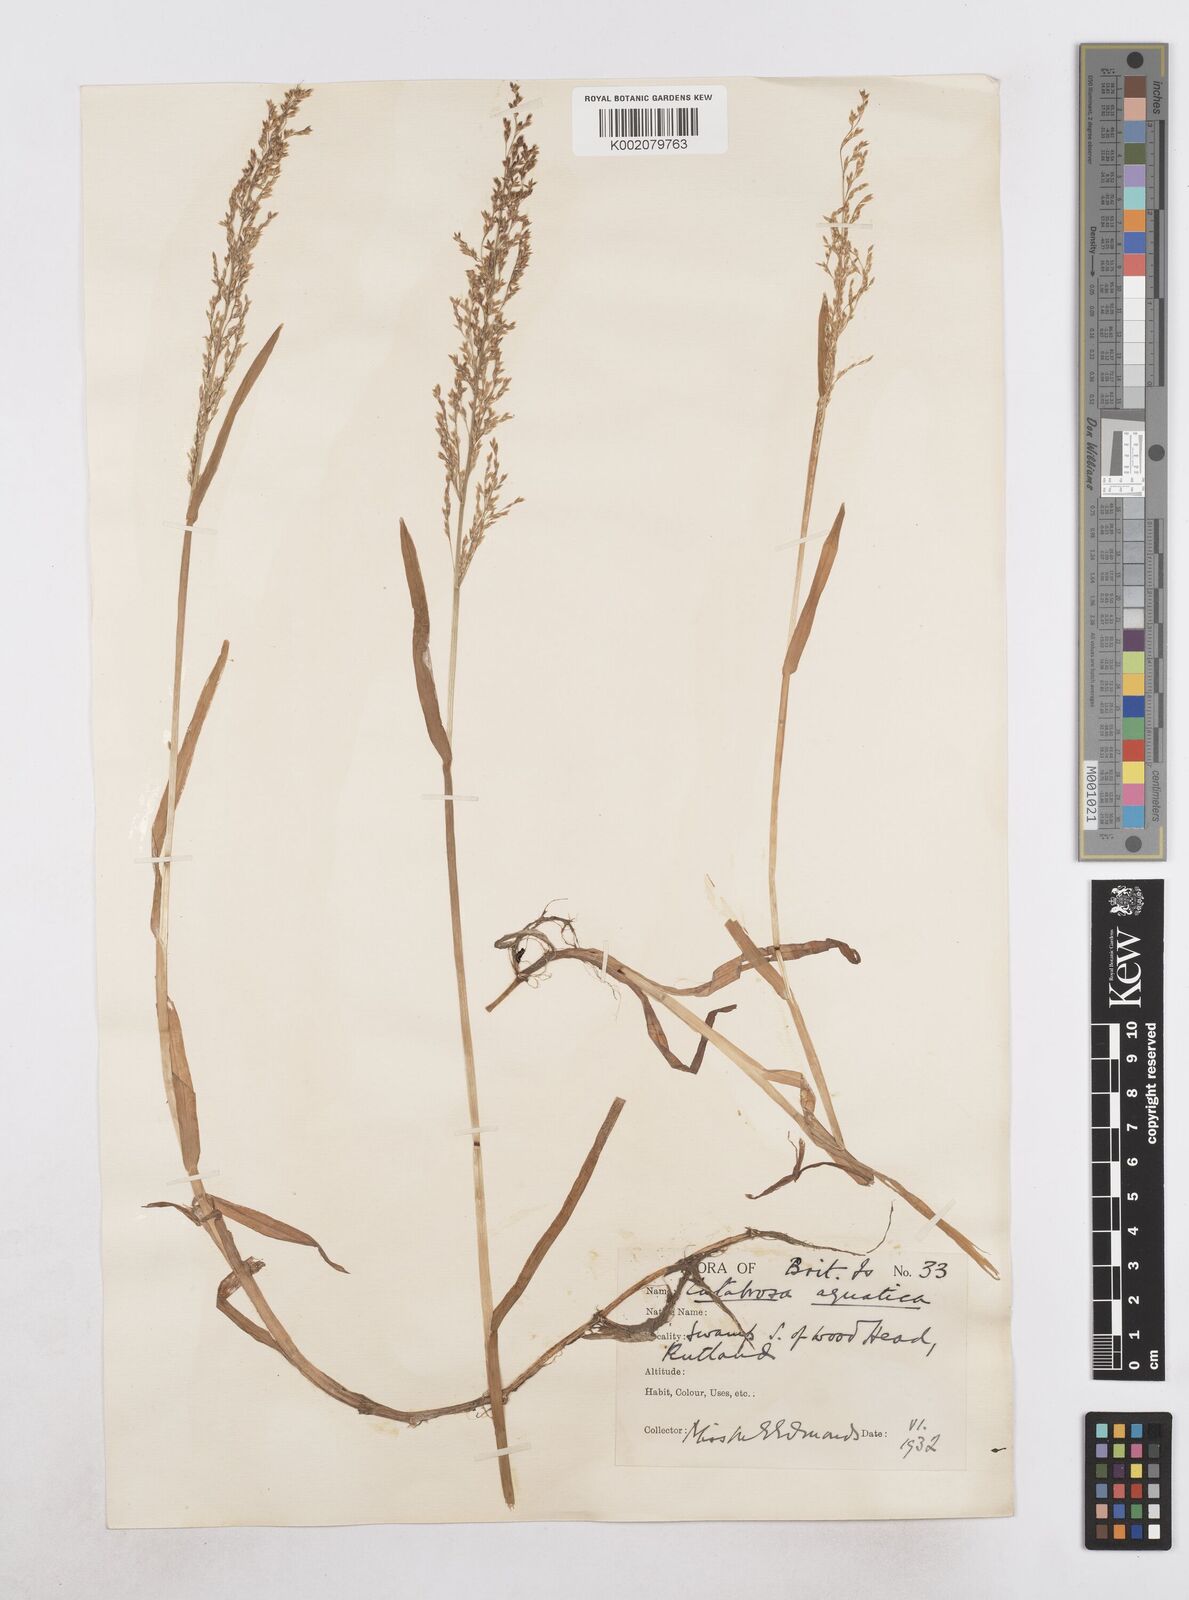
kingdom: Plantae
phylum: Tracheophyta
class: Liliopsida
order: Poales
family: Poaceae
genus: Catabrosa
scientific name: Catabrosa aquatica
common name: Whorl-grass
